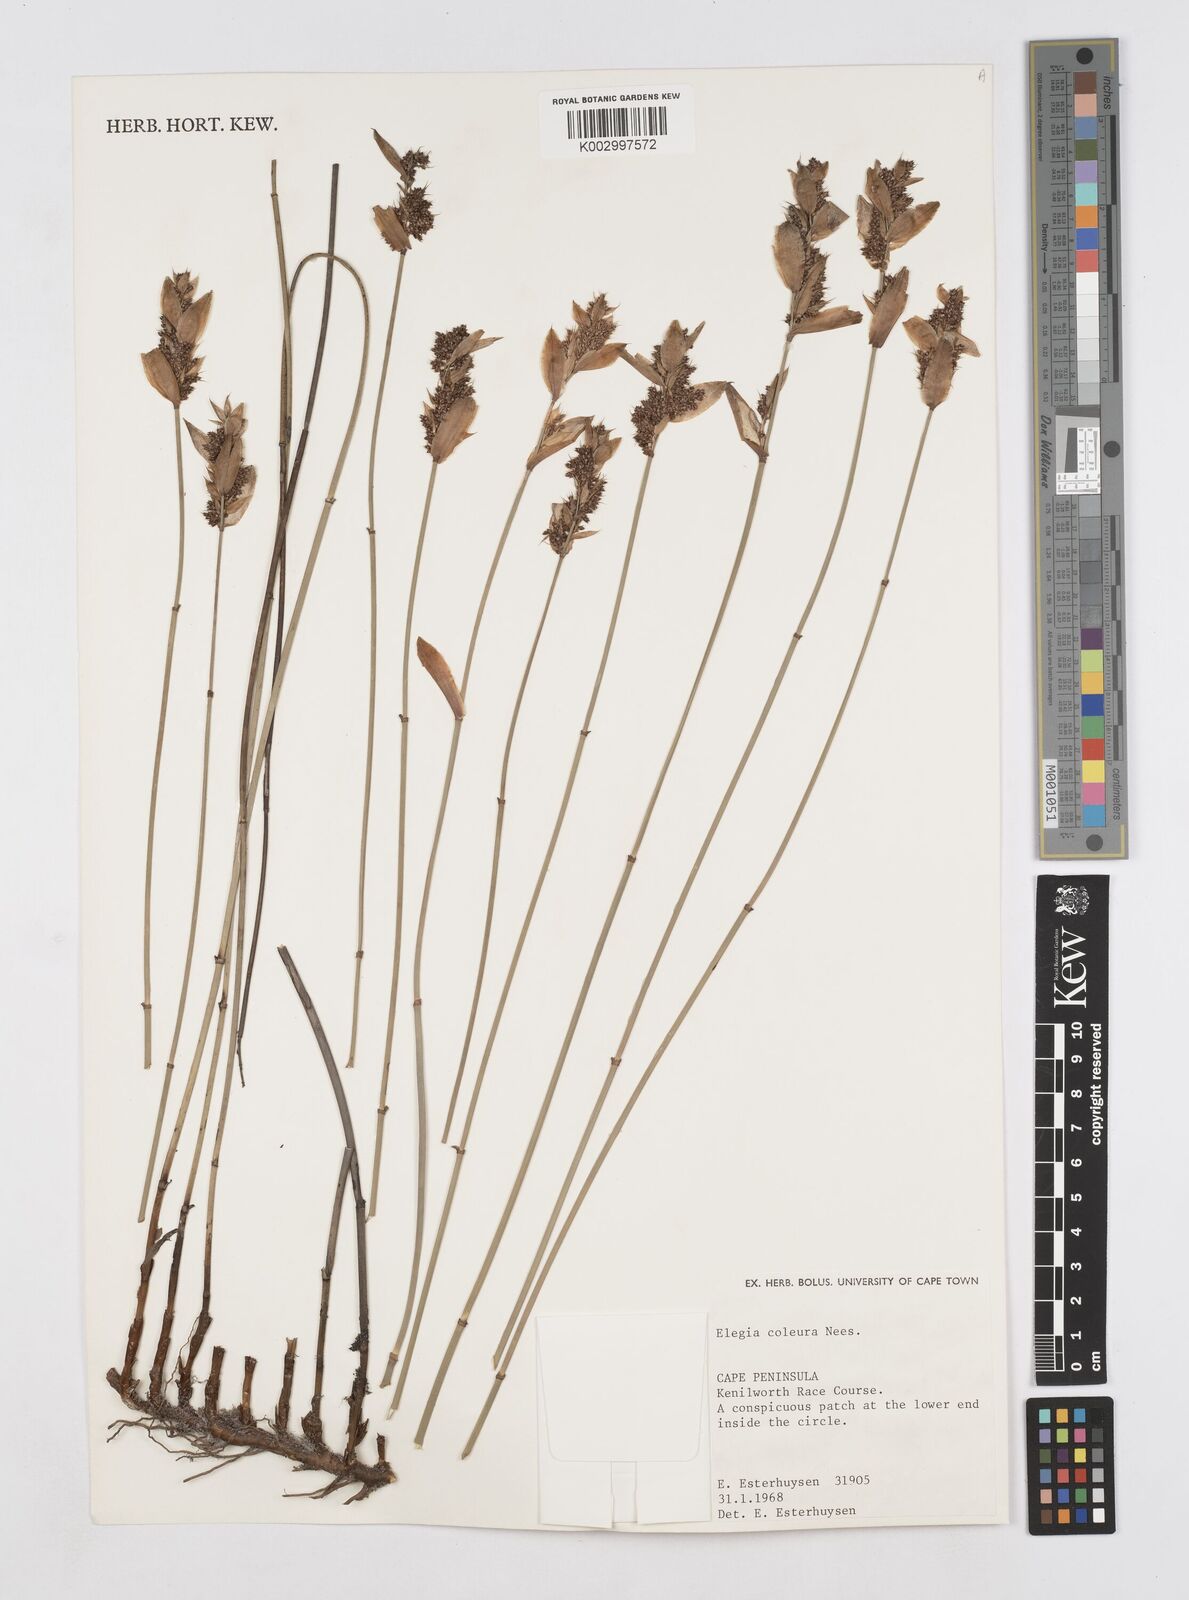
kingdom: Plantae
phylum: Tracheophyta
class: Liliopsida
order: Poales
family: Restionaceae
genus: Elegia
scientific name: Elegia coleura
